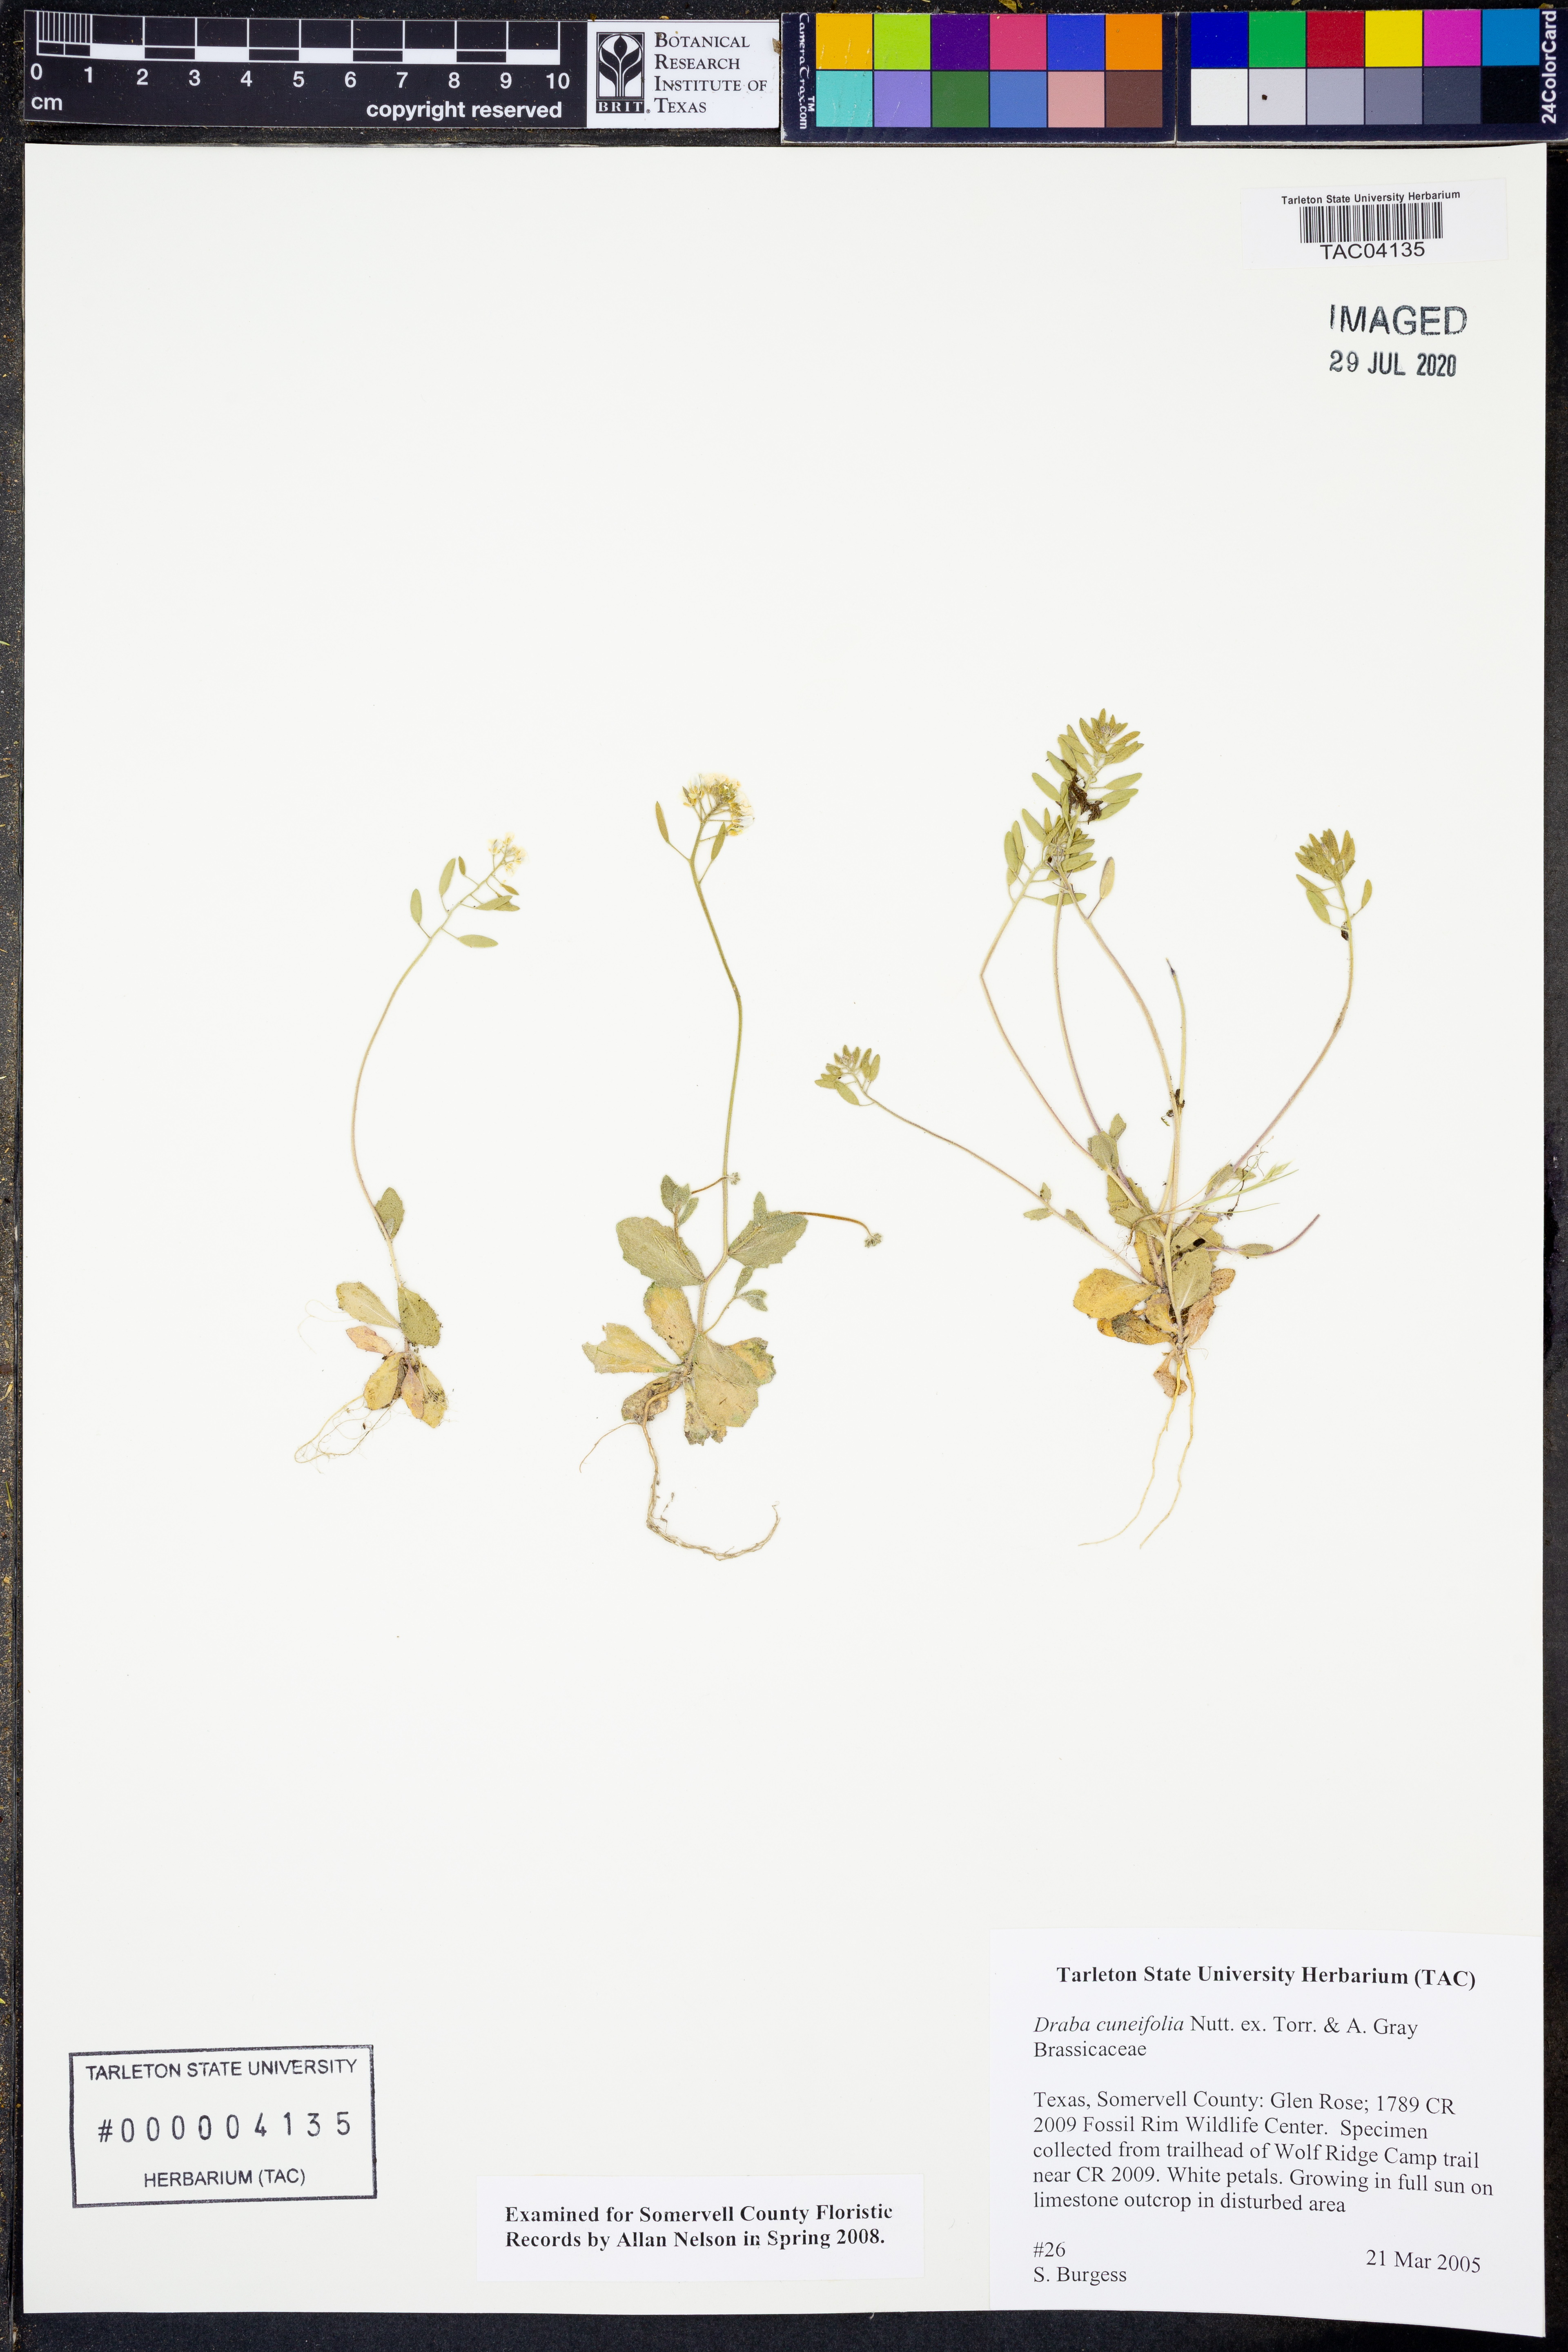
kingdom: Plantae
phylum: Tracheophyta
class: Magnoliopsida
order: Brassicales
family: Brassicaceae
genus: Tomostima
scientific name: Tomostima cuneifolia
